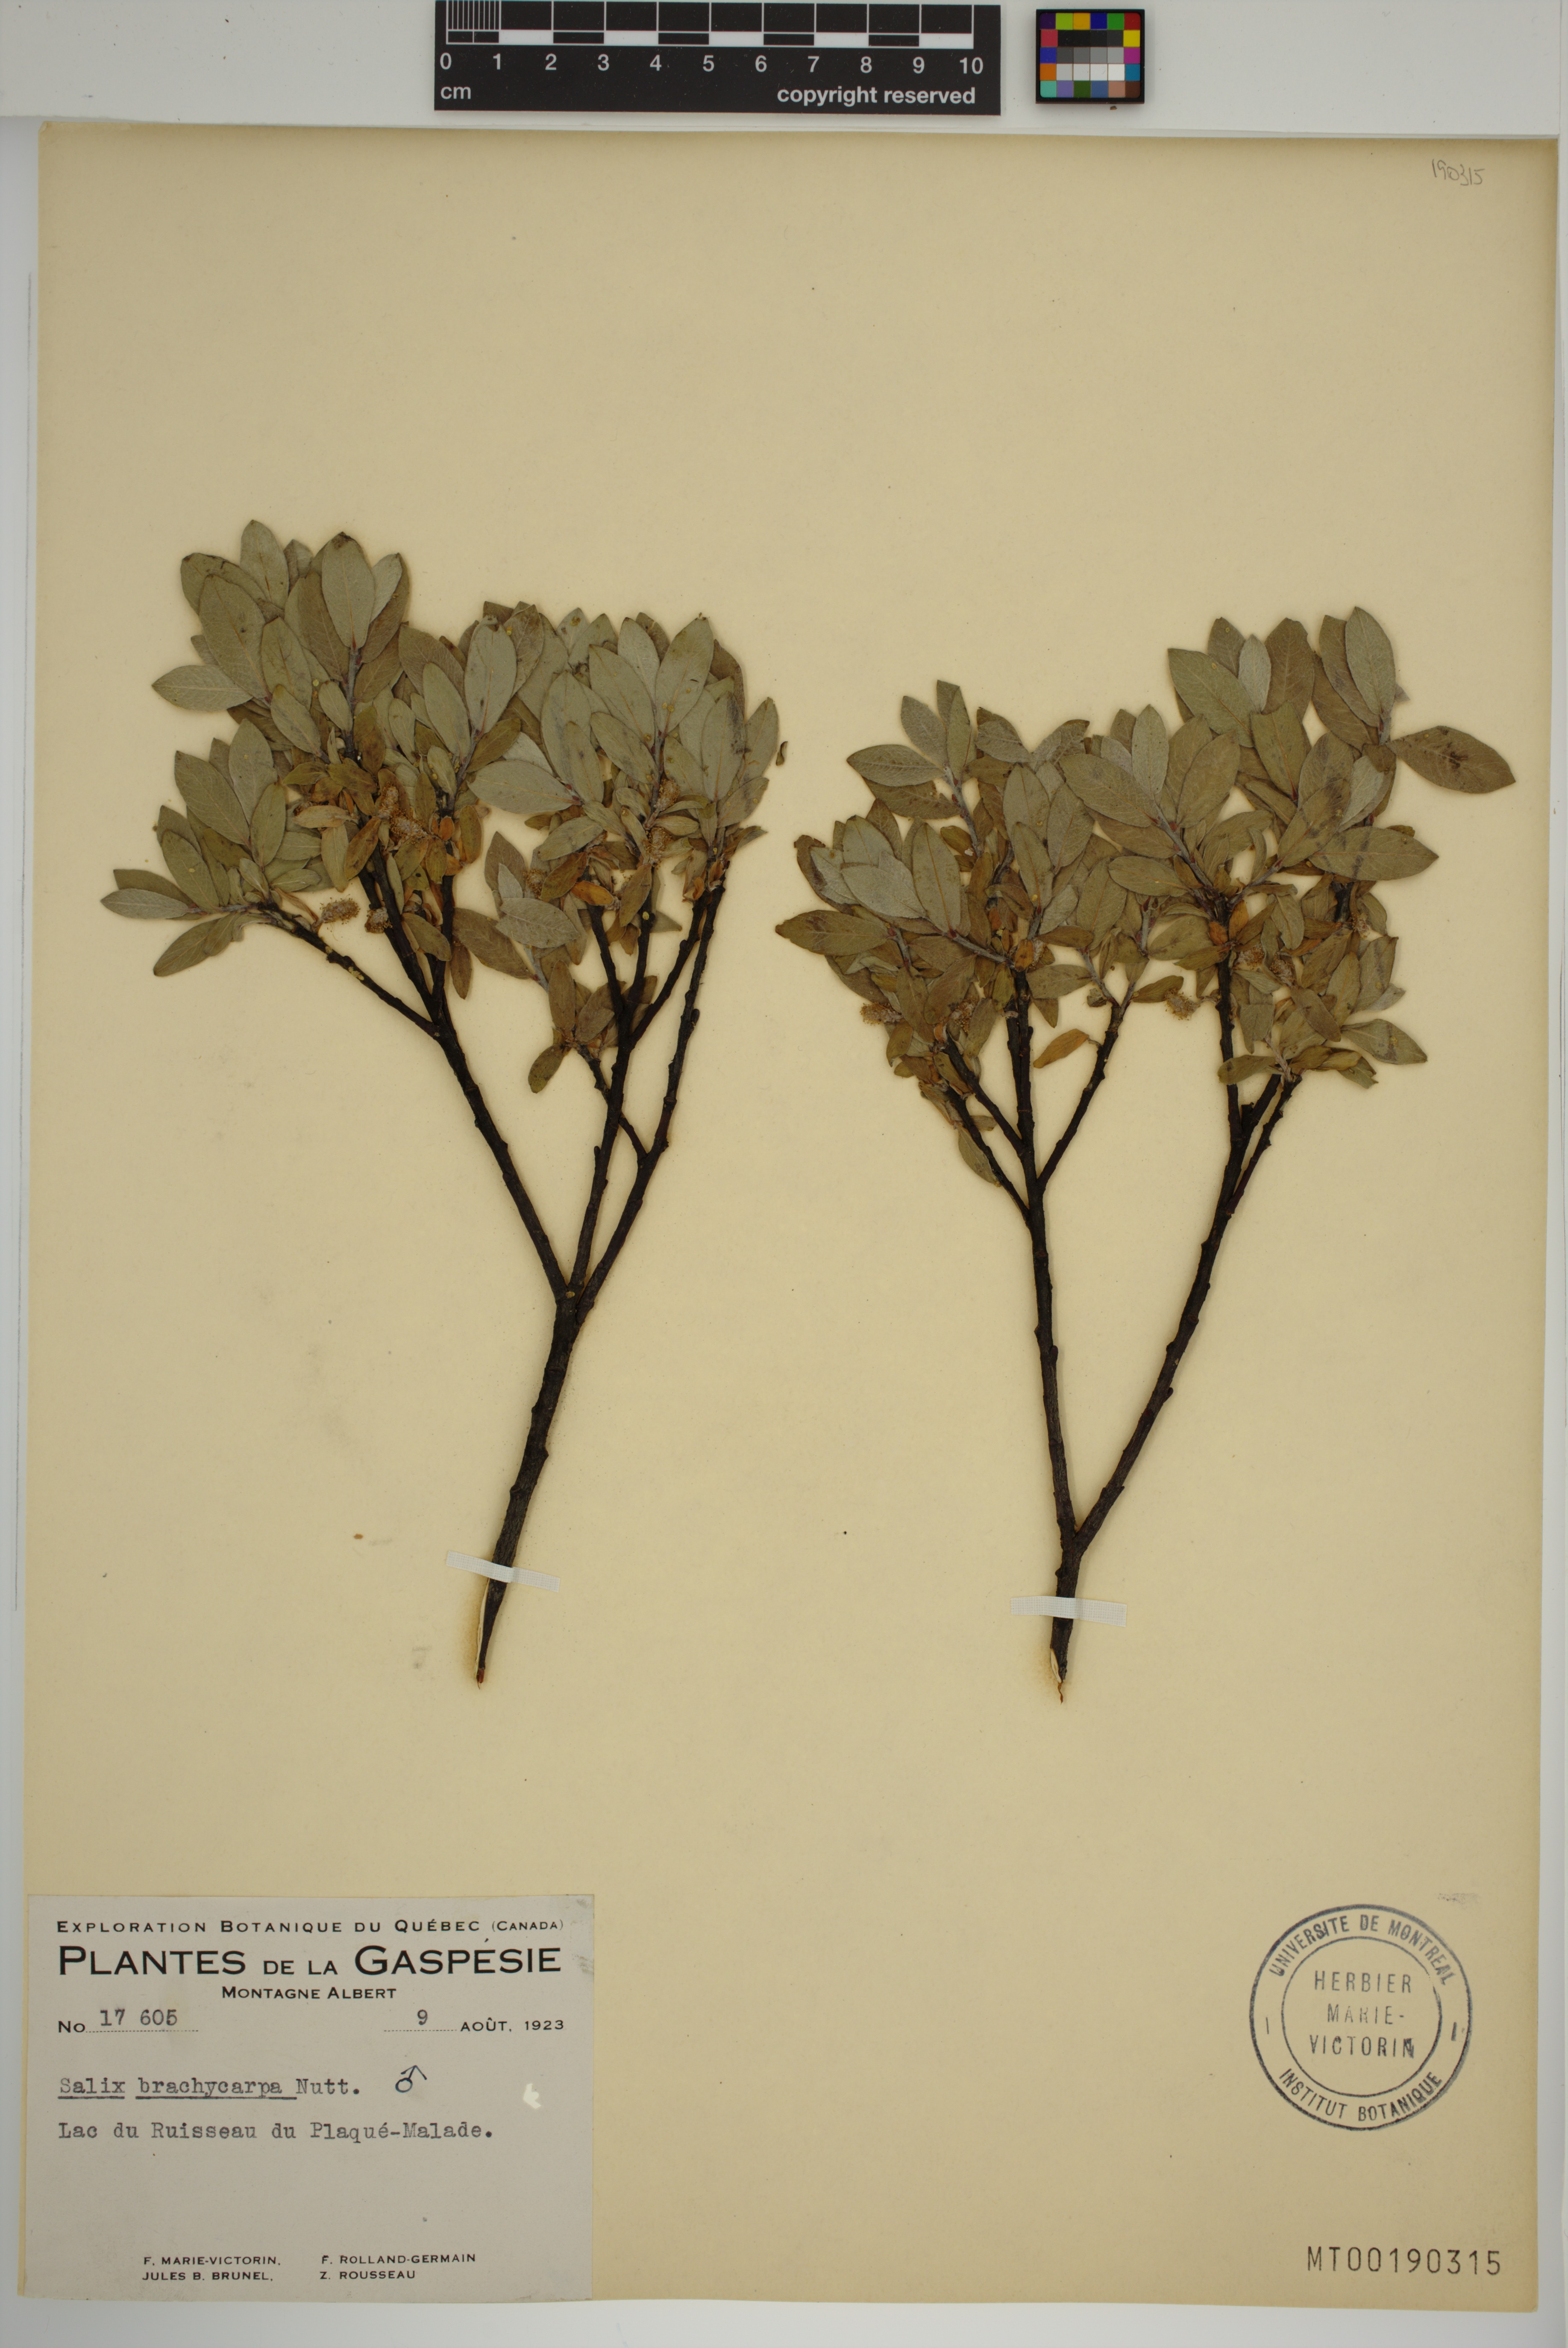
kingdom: Plantae
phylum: Tracheophyta
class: Magnoliopsida
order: Malpighiales
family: Salicaceae
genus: Salix
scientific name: Salix brachycarpa
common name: Barren-ground willow
